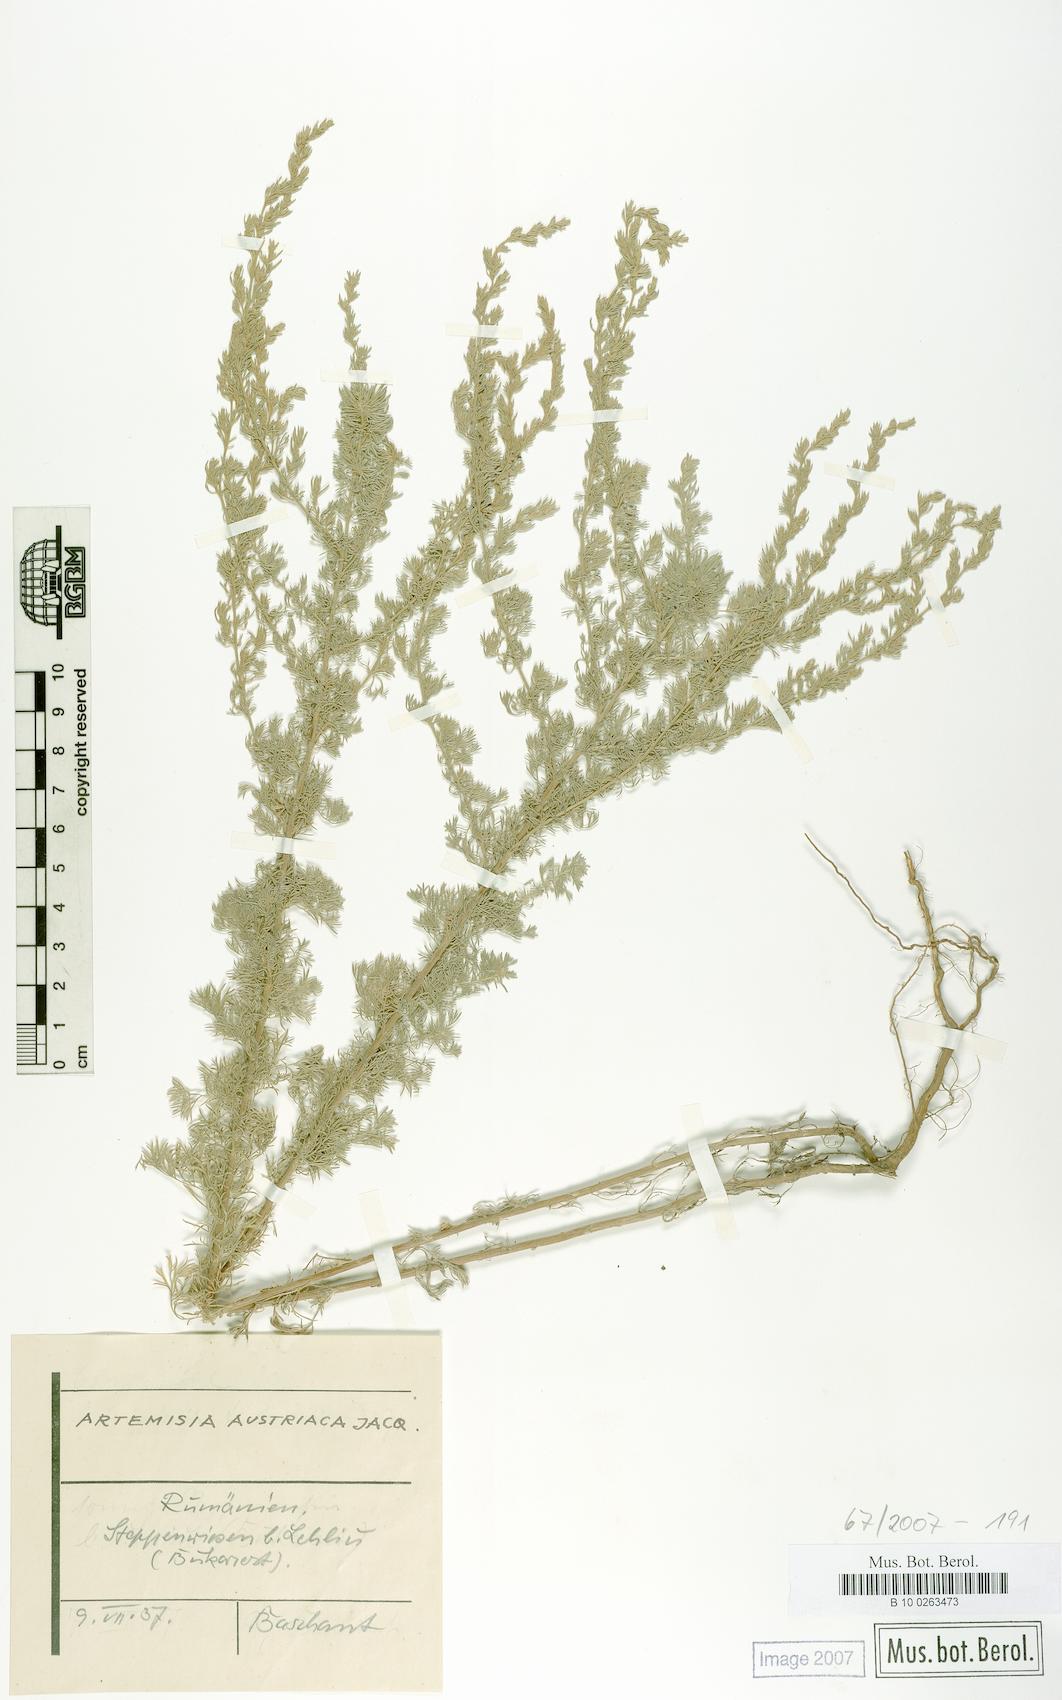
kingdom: Plantae
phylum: Tracheophyta
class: Magnoliopsida
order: Asterales
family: Asteraceae
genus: Artemisia
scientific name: Artemisia austriaca
